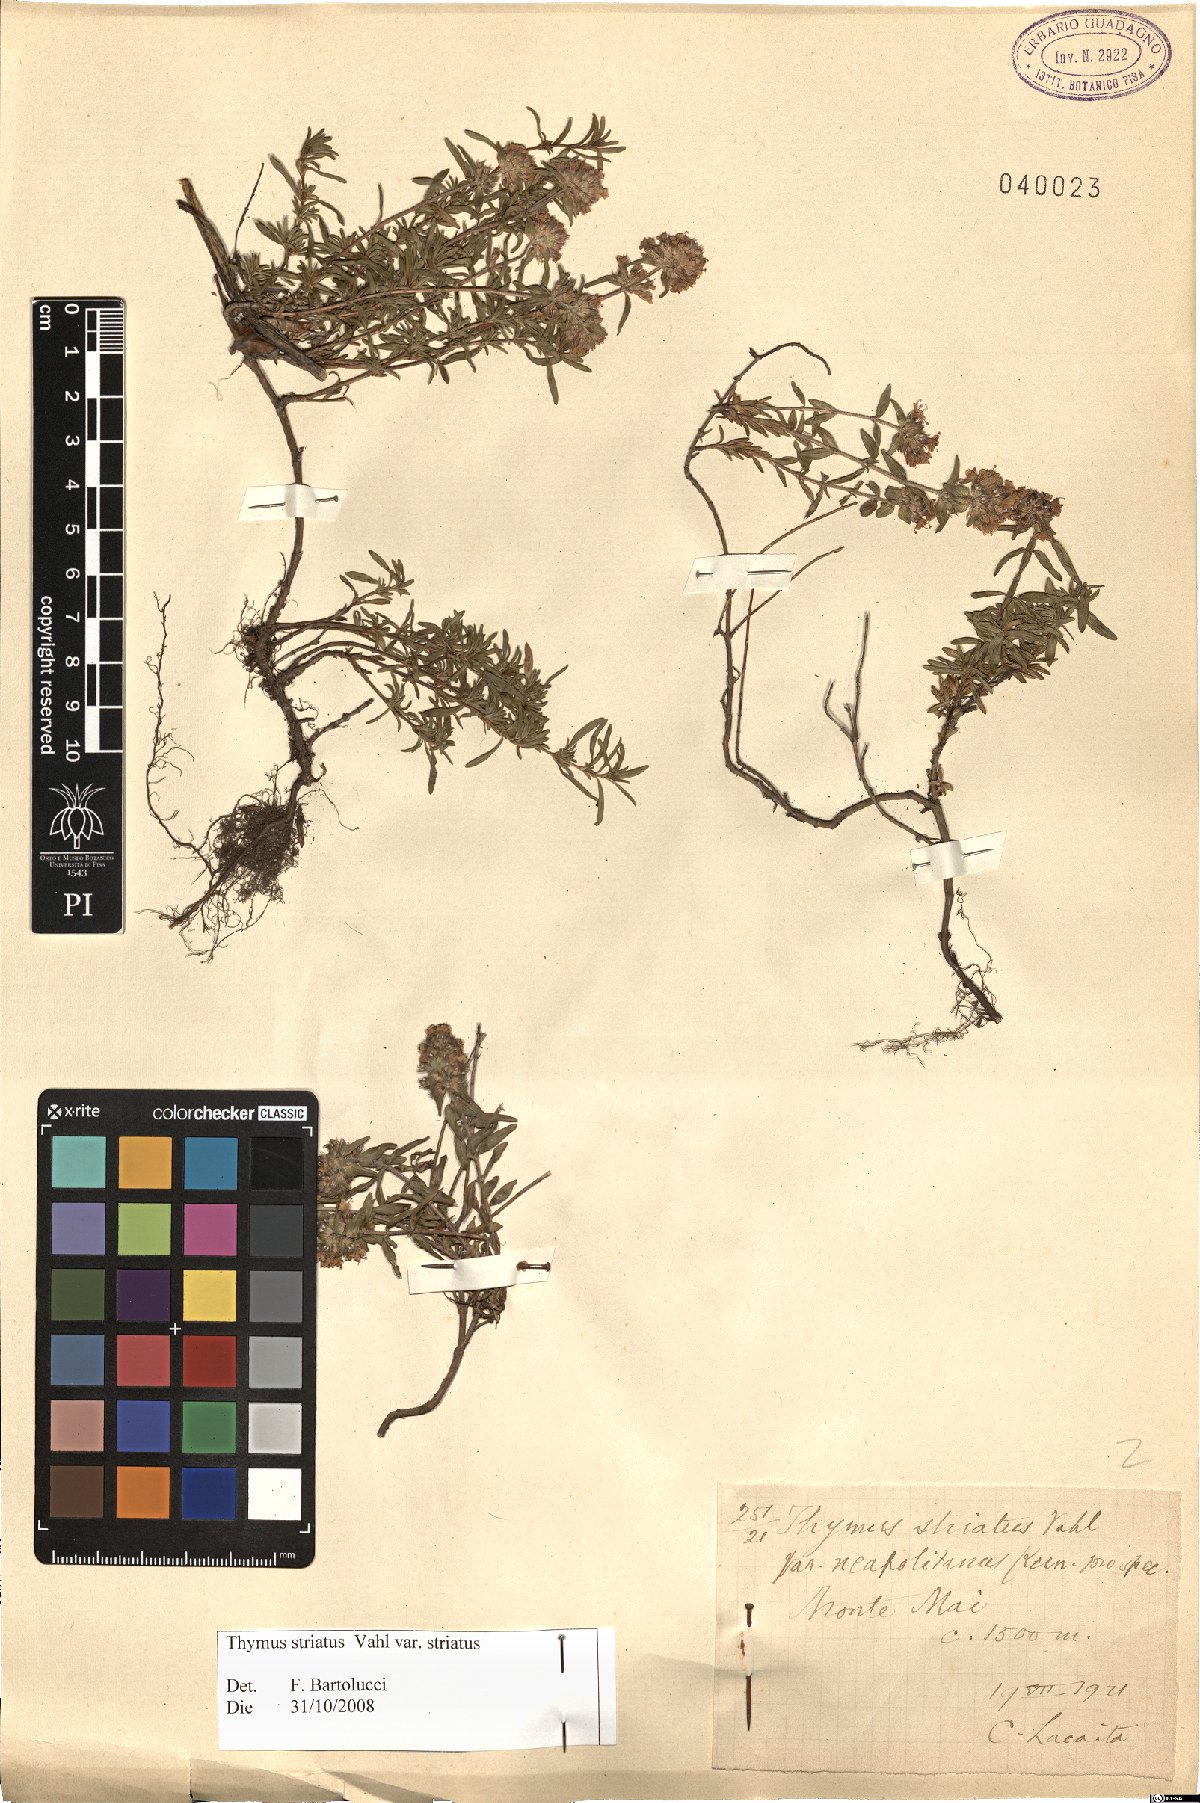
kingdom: Plantae
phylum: Tracheophyta
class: Magnoliopsida
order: Lamiales
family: Lamiaceae
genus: Thymus
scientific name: Thymus striatus
